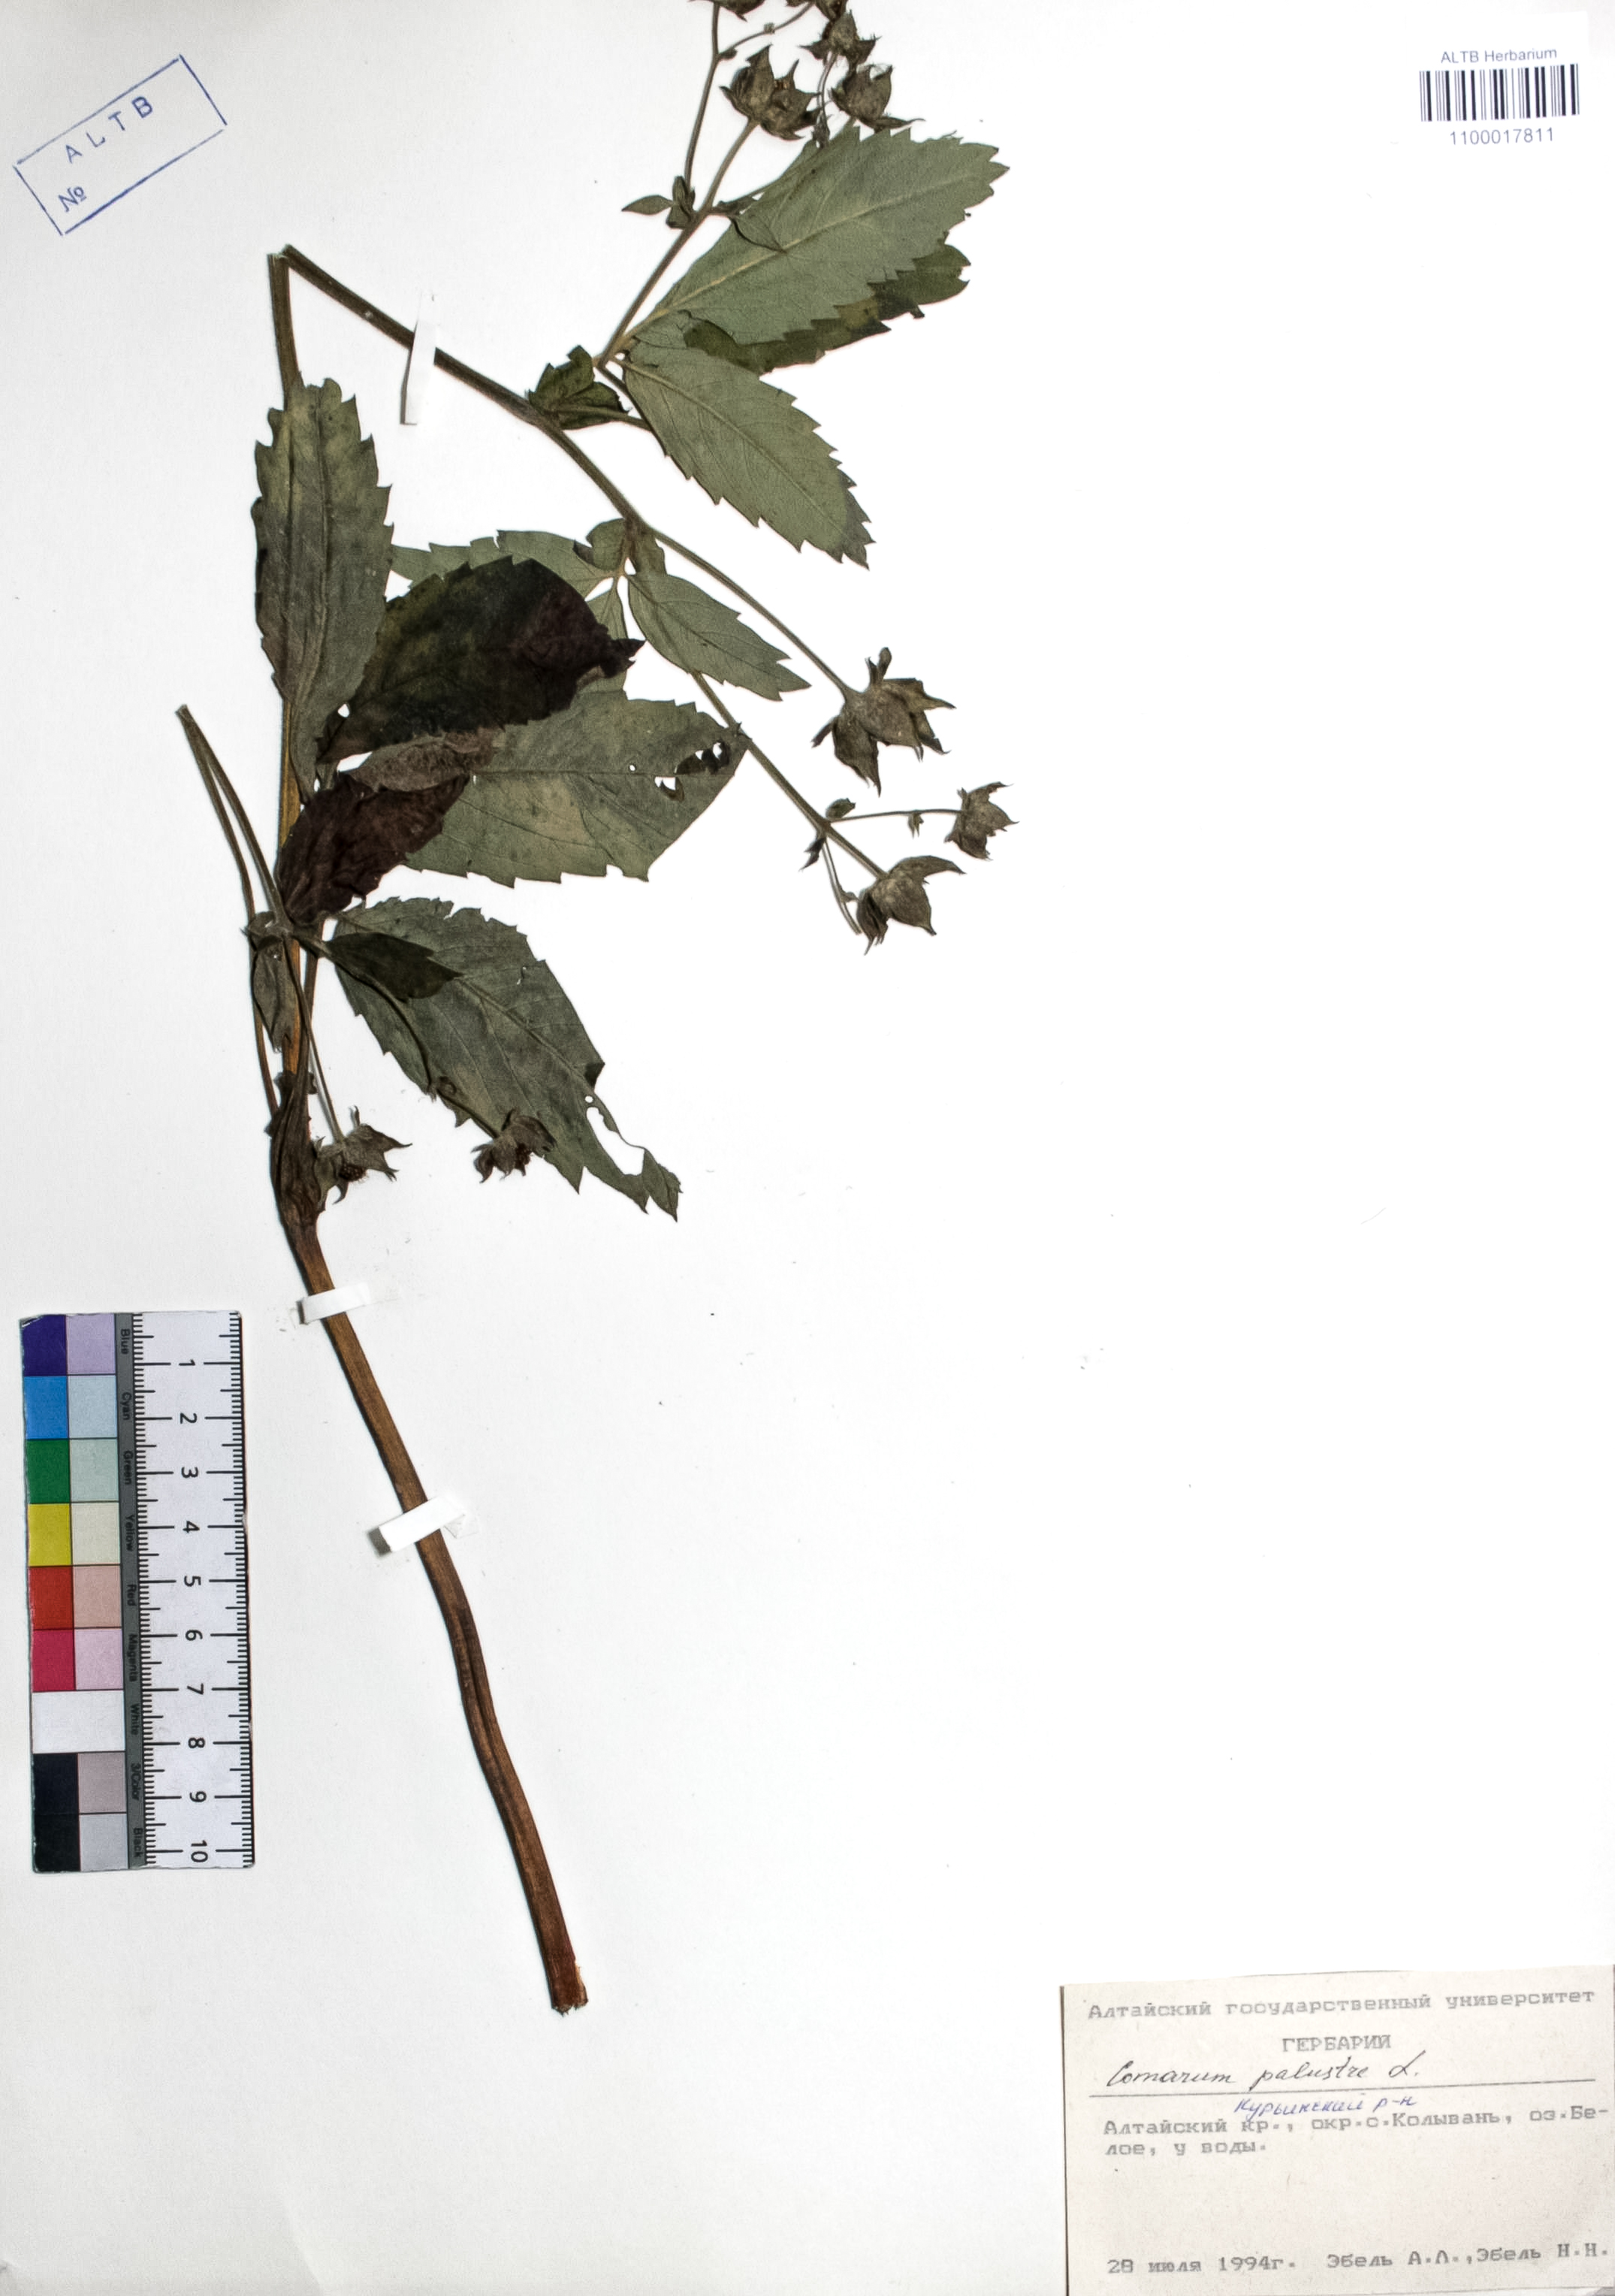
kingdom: Plantae
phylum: Tracheophyta
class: Magnoliopsida
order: Rosales
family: Rosaceae
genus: Comarum
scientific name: Comarum palustre
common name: Marsh cinquefoil
